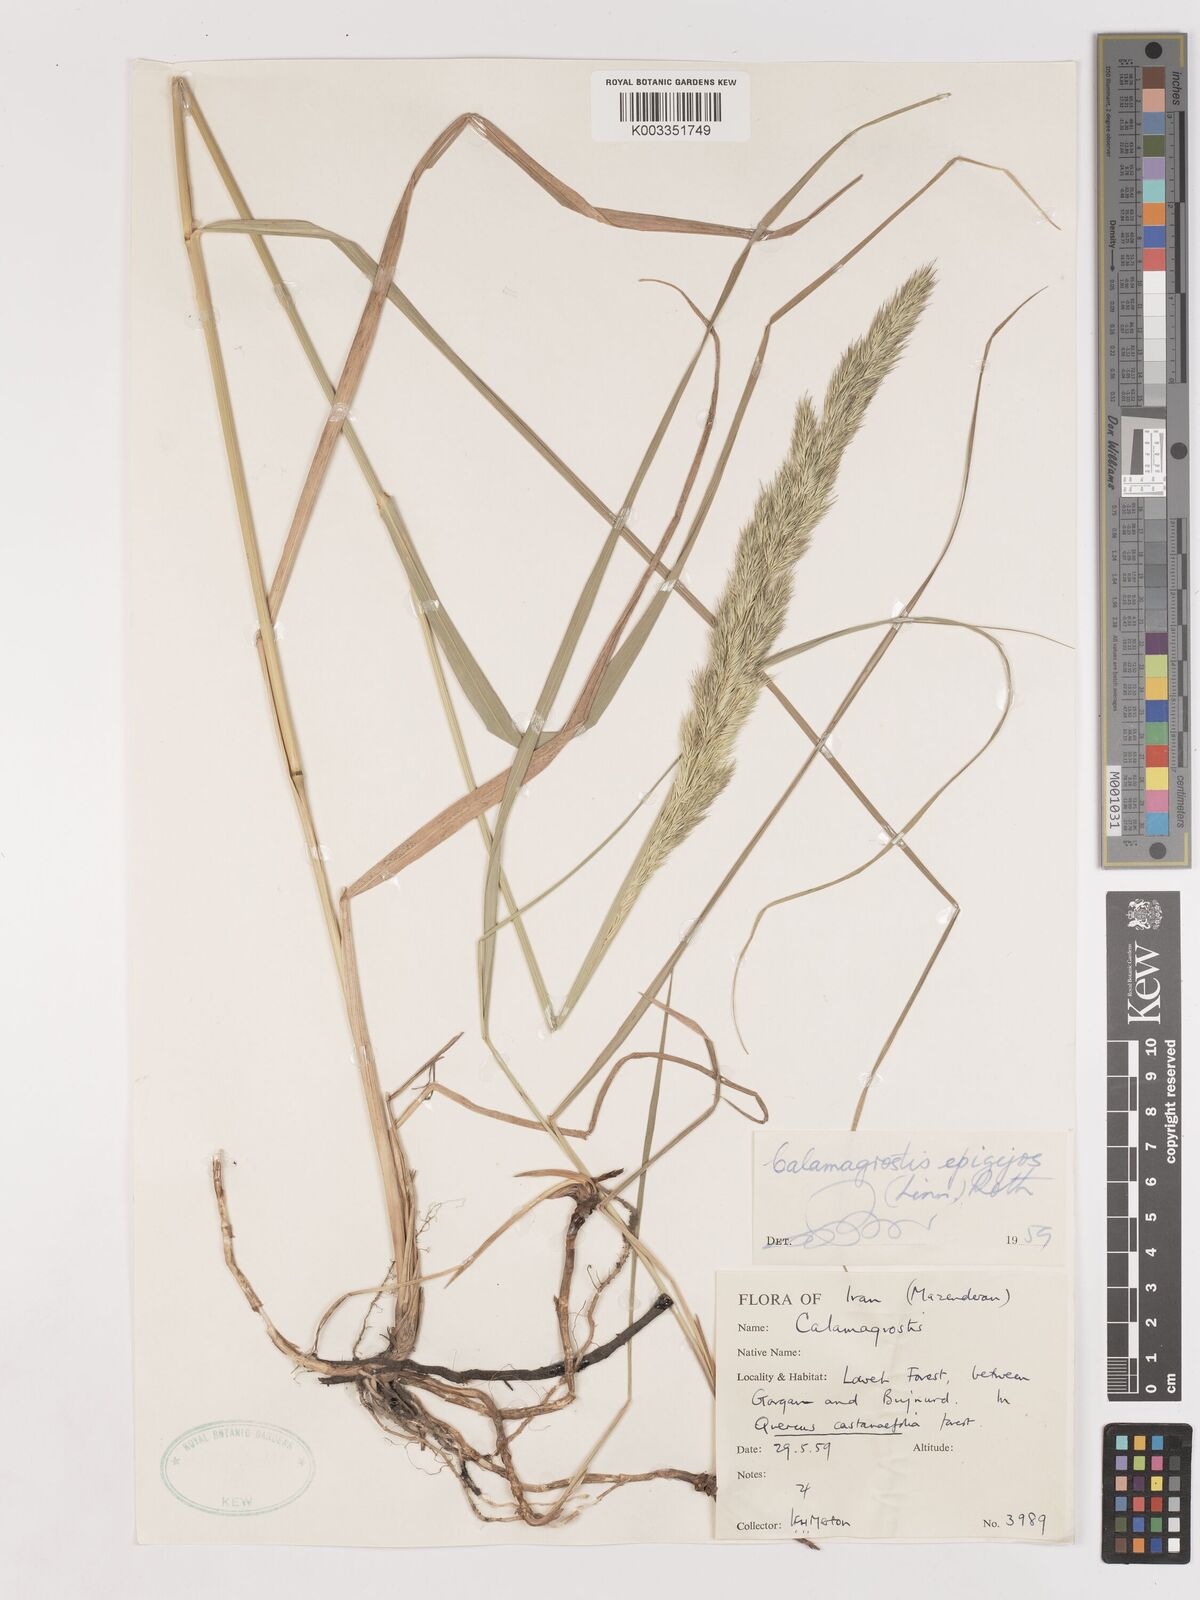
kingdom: Plantae
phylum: Tracheophyta
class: Liliopsida
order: Poales
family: Poaceae
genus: Calamagrostis
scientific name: Calamagrostis
